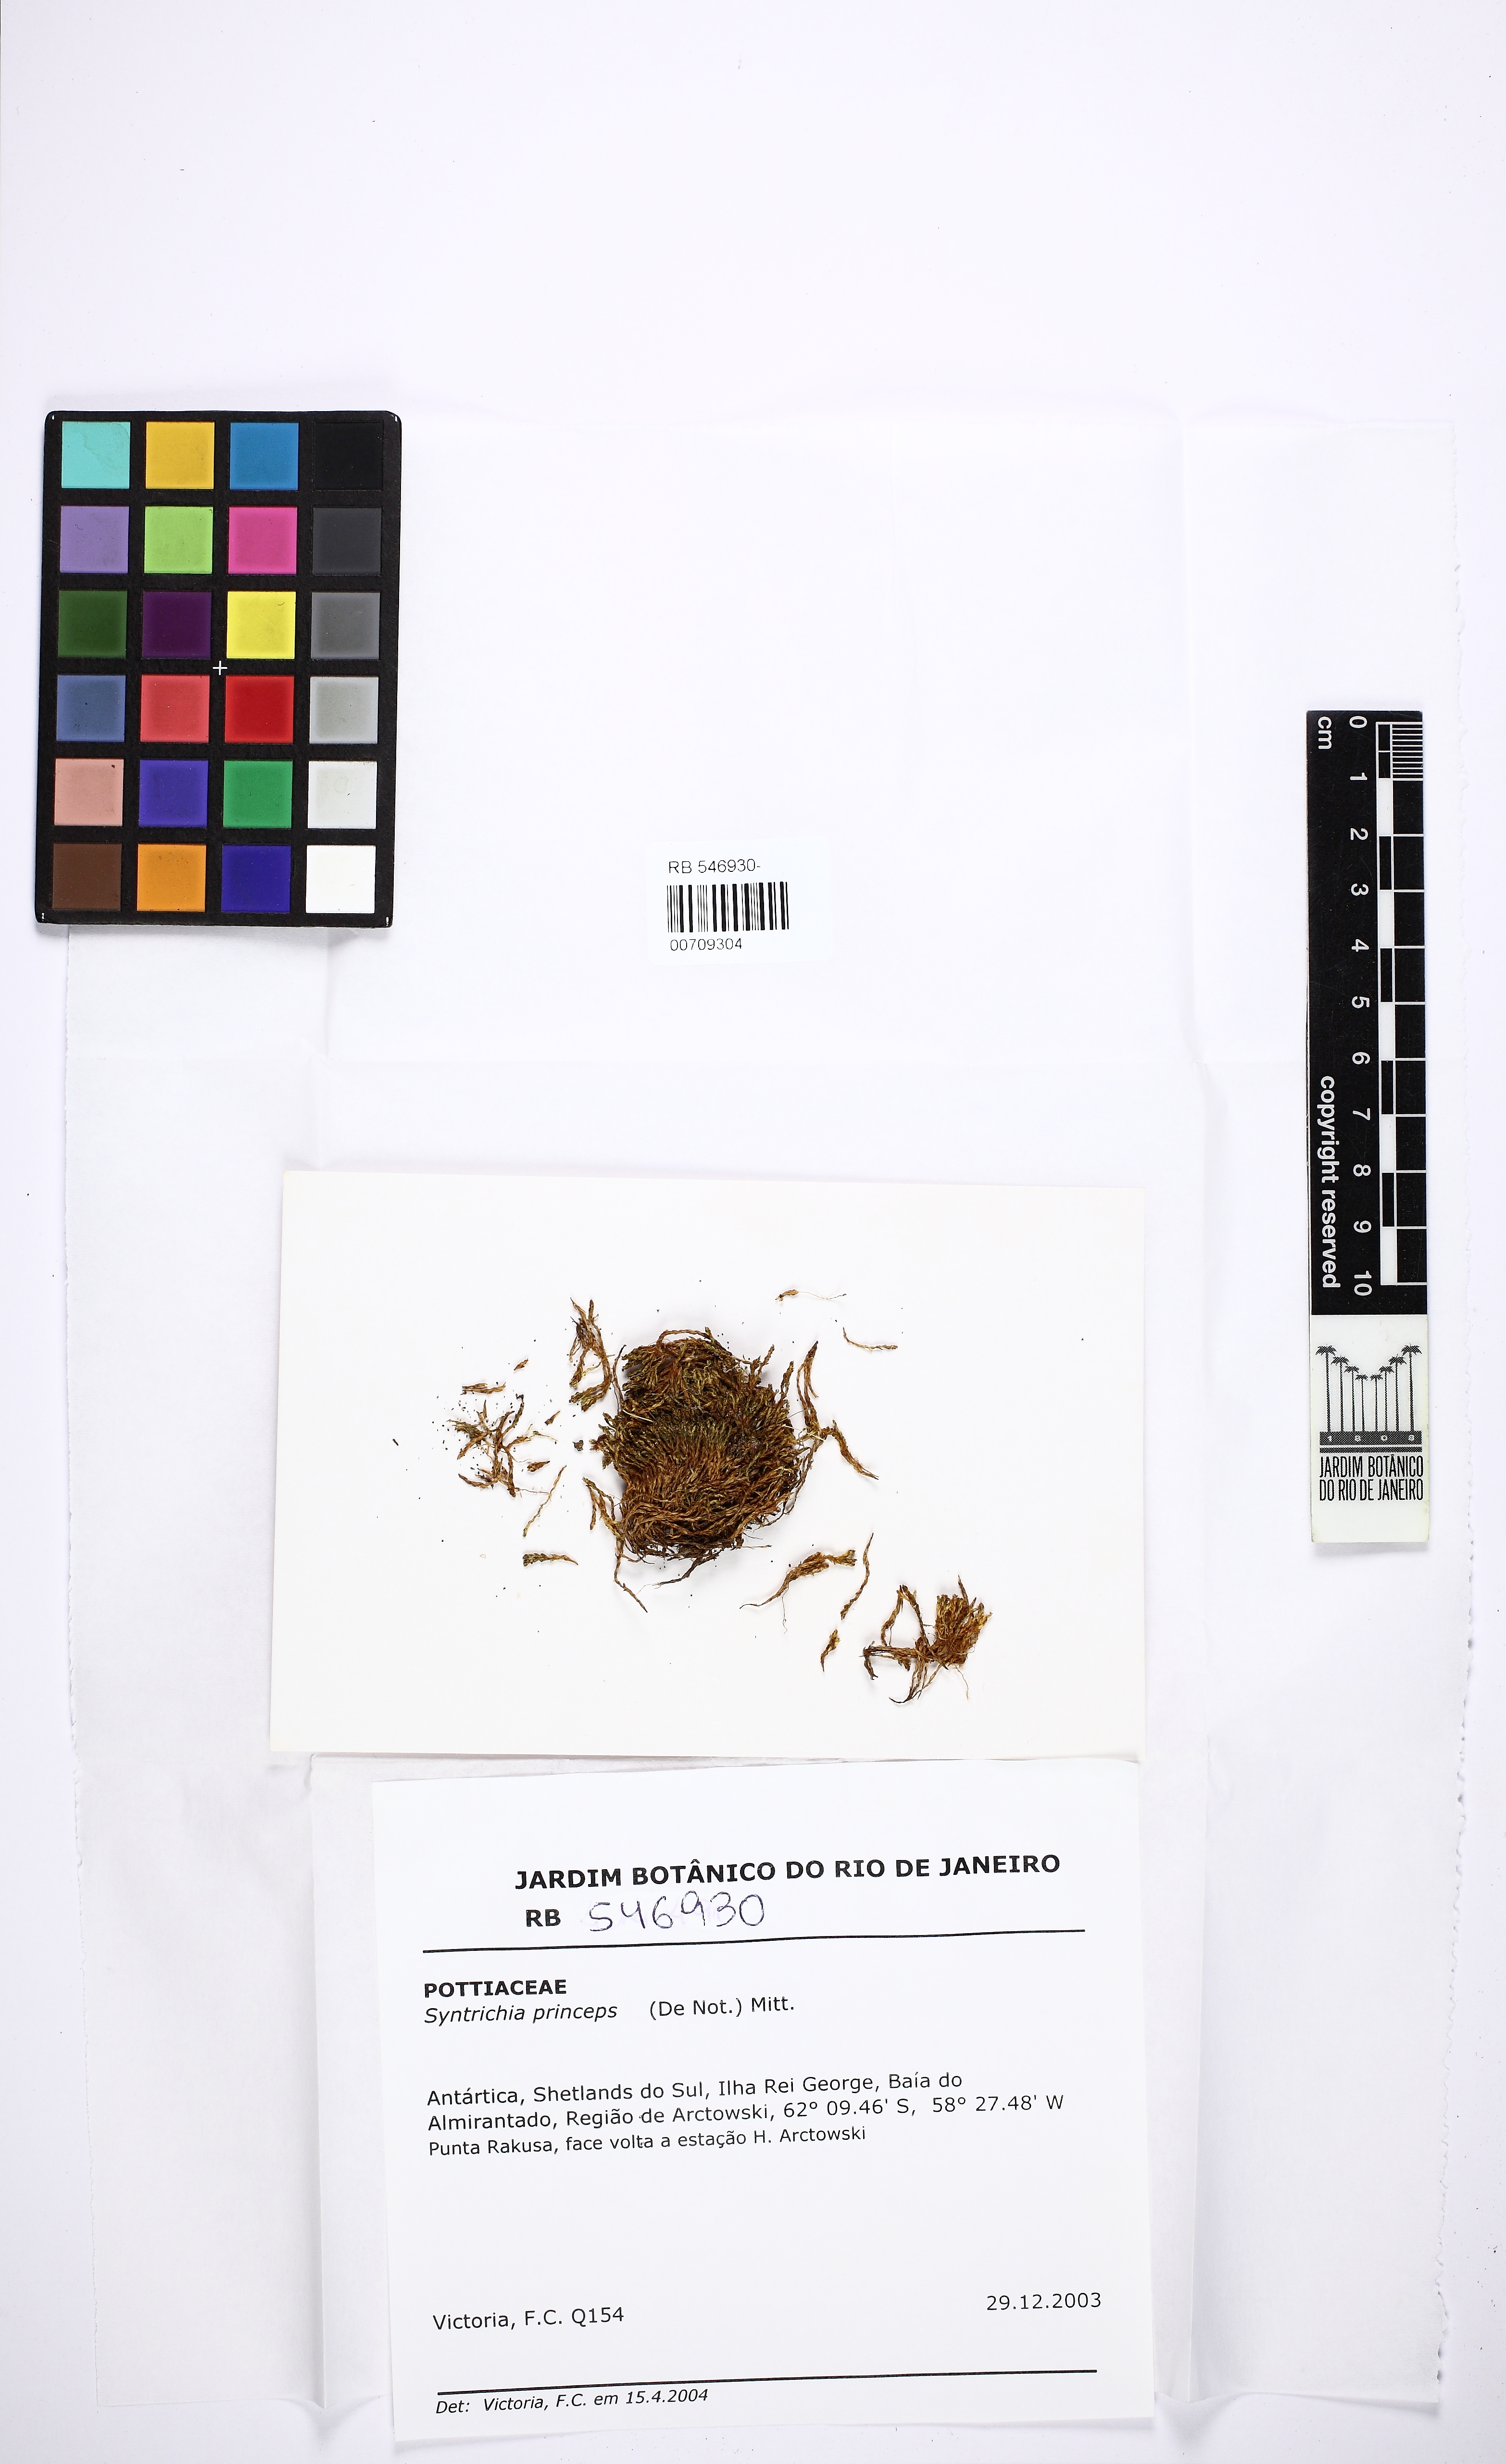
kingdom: Plantae
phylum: Bryophyta
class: Bryopsida
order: Pottiales
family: Pottiaceae
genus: Syntrichia
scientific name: Syntrichia princeps
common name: Brown screw-moss
